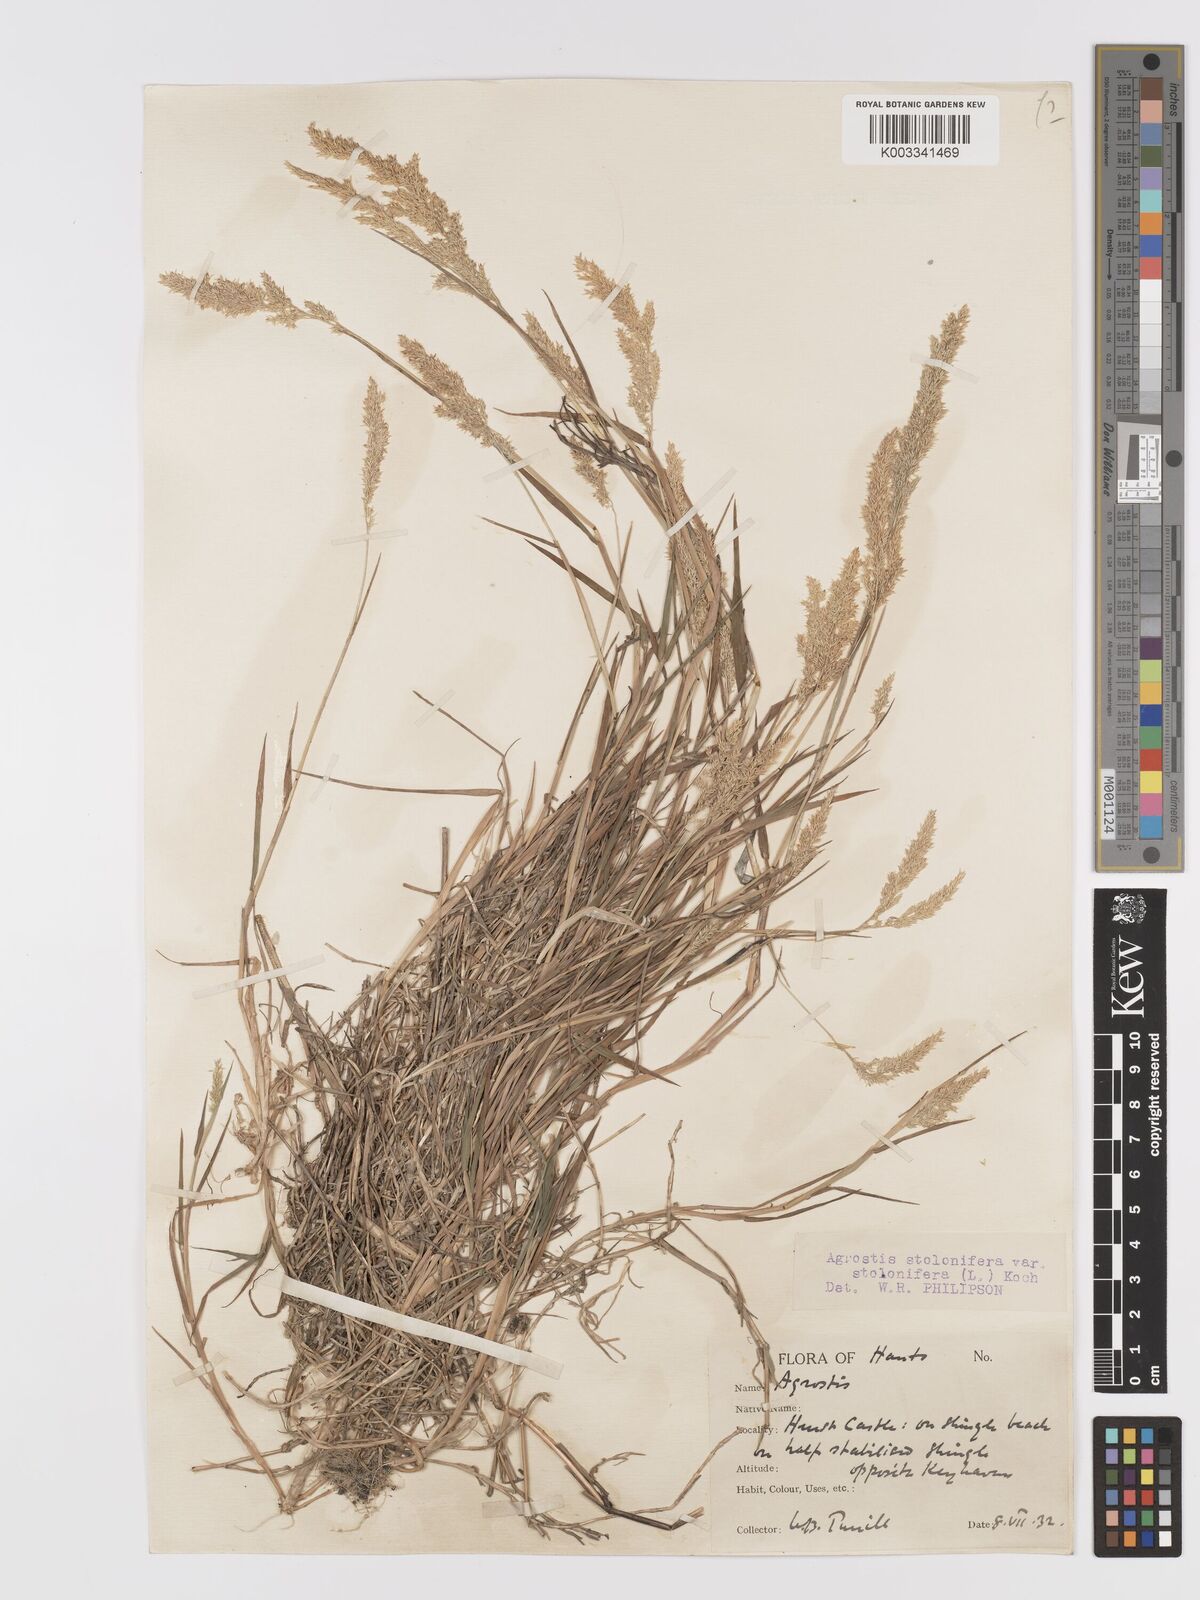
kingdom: Plantae
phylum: Tracheophyta
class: Liliopsida
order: Poales
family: Poaceae
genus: Agrostis
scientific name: Agrostis stolonifera
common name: Creeping bentgrass
